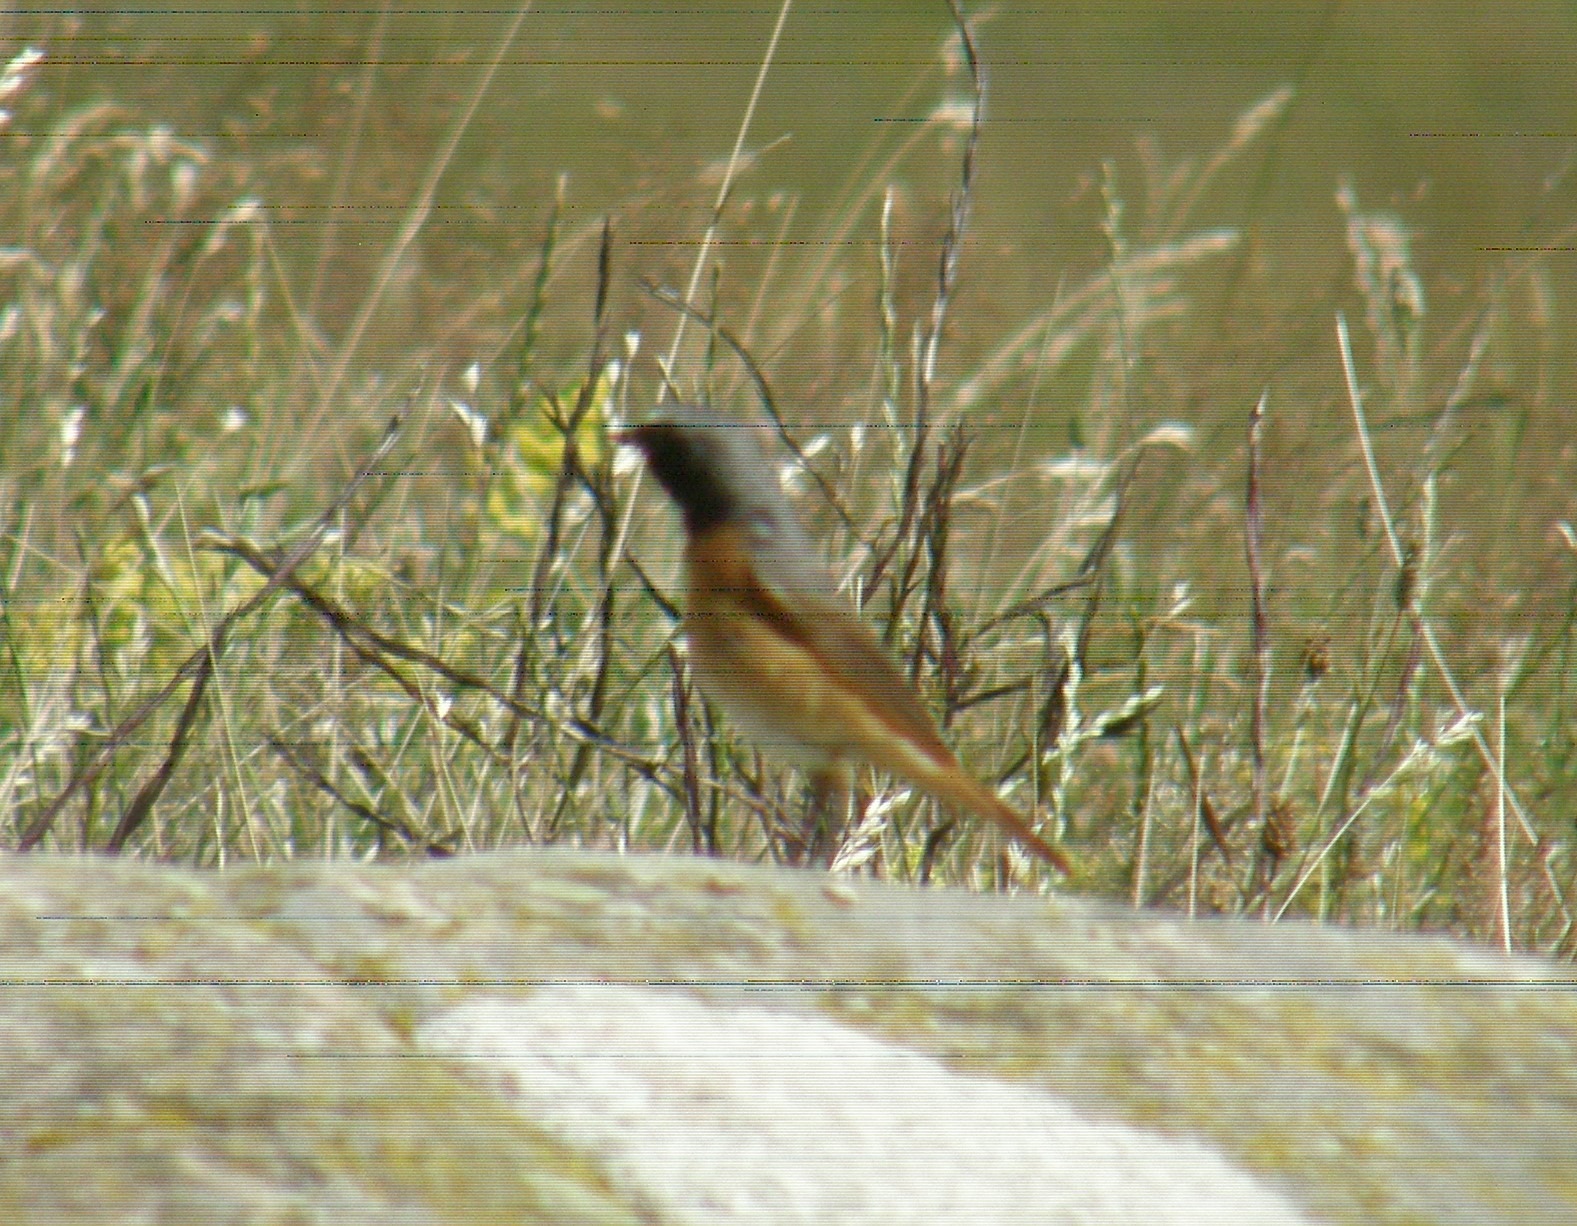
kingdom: Animalia
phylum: Chordata
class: Aves
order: Passeriformes
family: Muscicapidae
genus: Phoenicurus
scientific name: Phoenicurus phoenicurus
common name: Rødstjert
